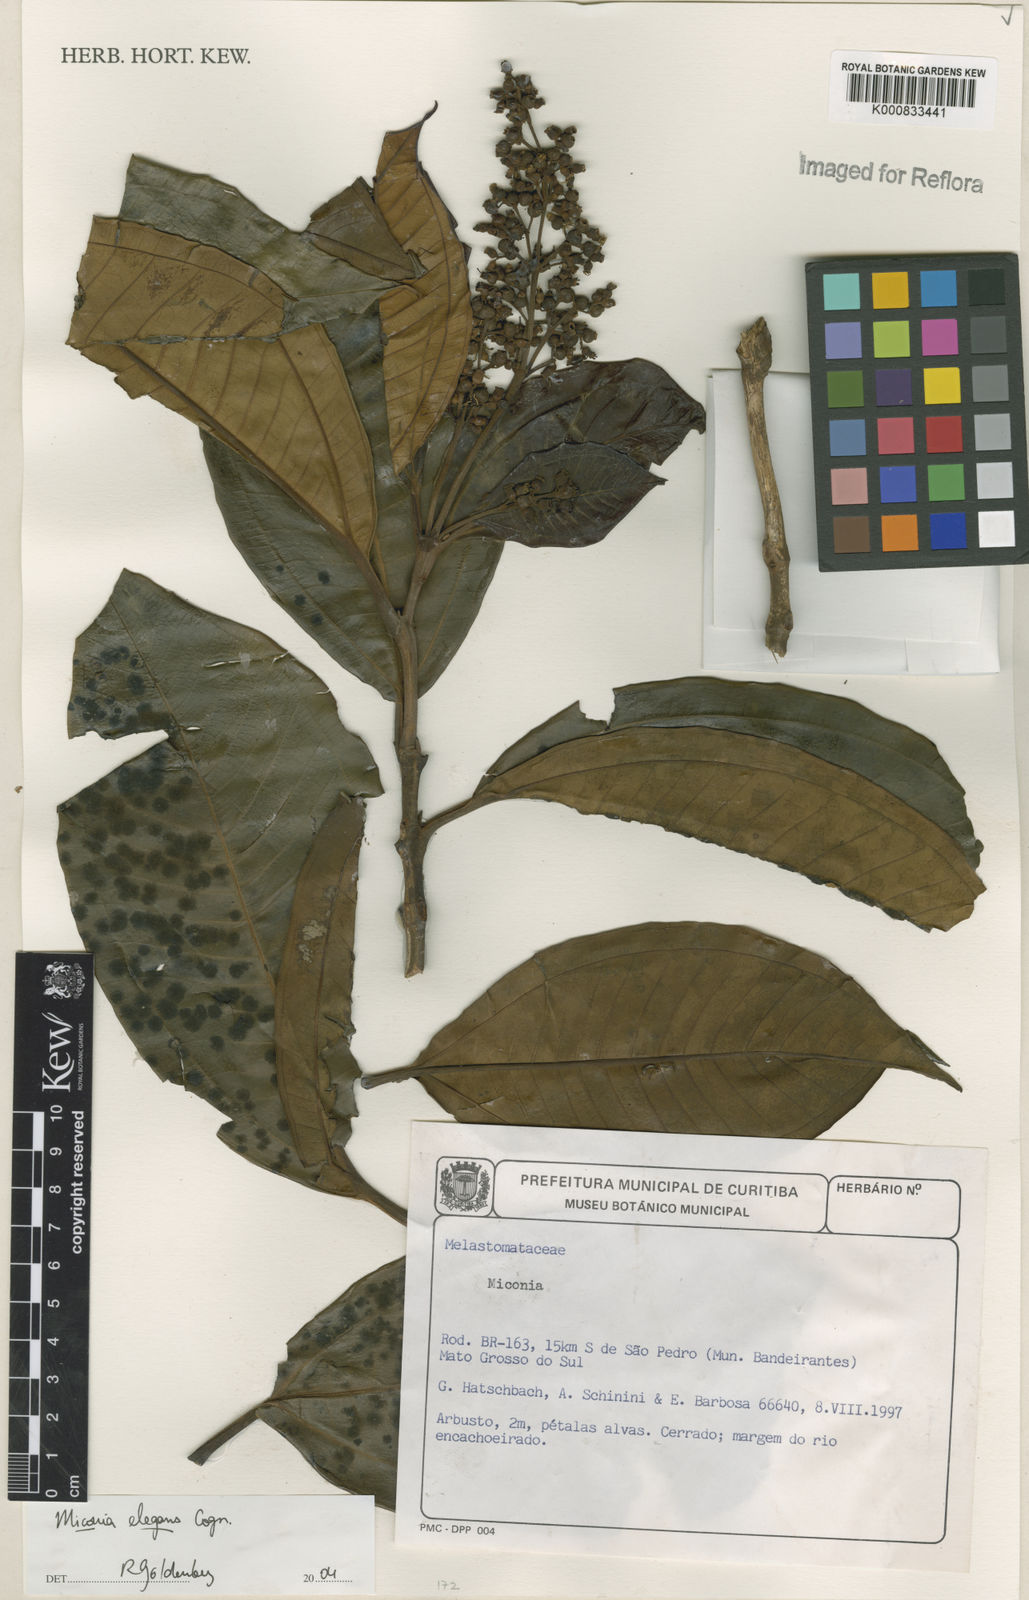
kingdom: Plantae
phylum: Tracheophyta
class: Magnoliopsida
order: Myrtales
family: Melastomataceae
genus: Miconia
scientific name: Miconia elegans
